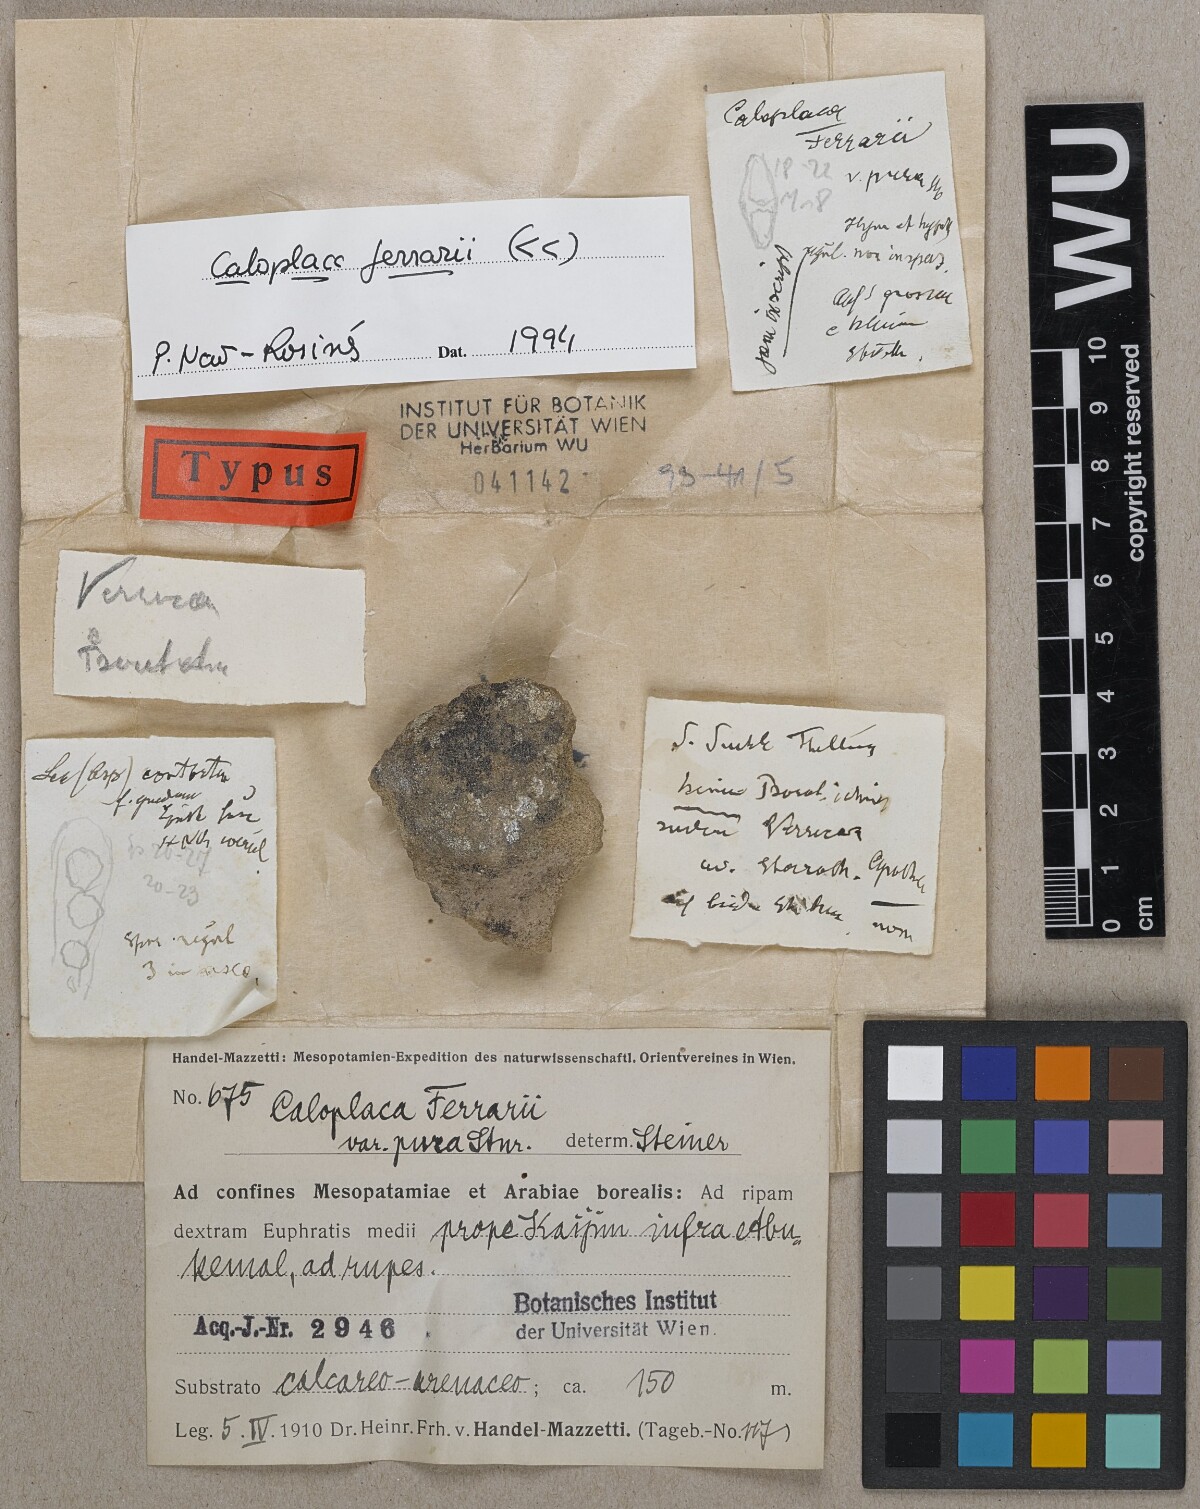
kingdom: Fungi
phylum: Ascomycota
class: Lecanoromycetes
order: Teloschistales
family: Teloschistaceae
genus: Xanthocarpia
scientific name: Xanthocarpia ferrarii
